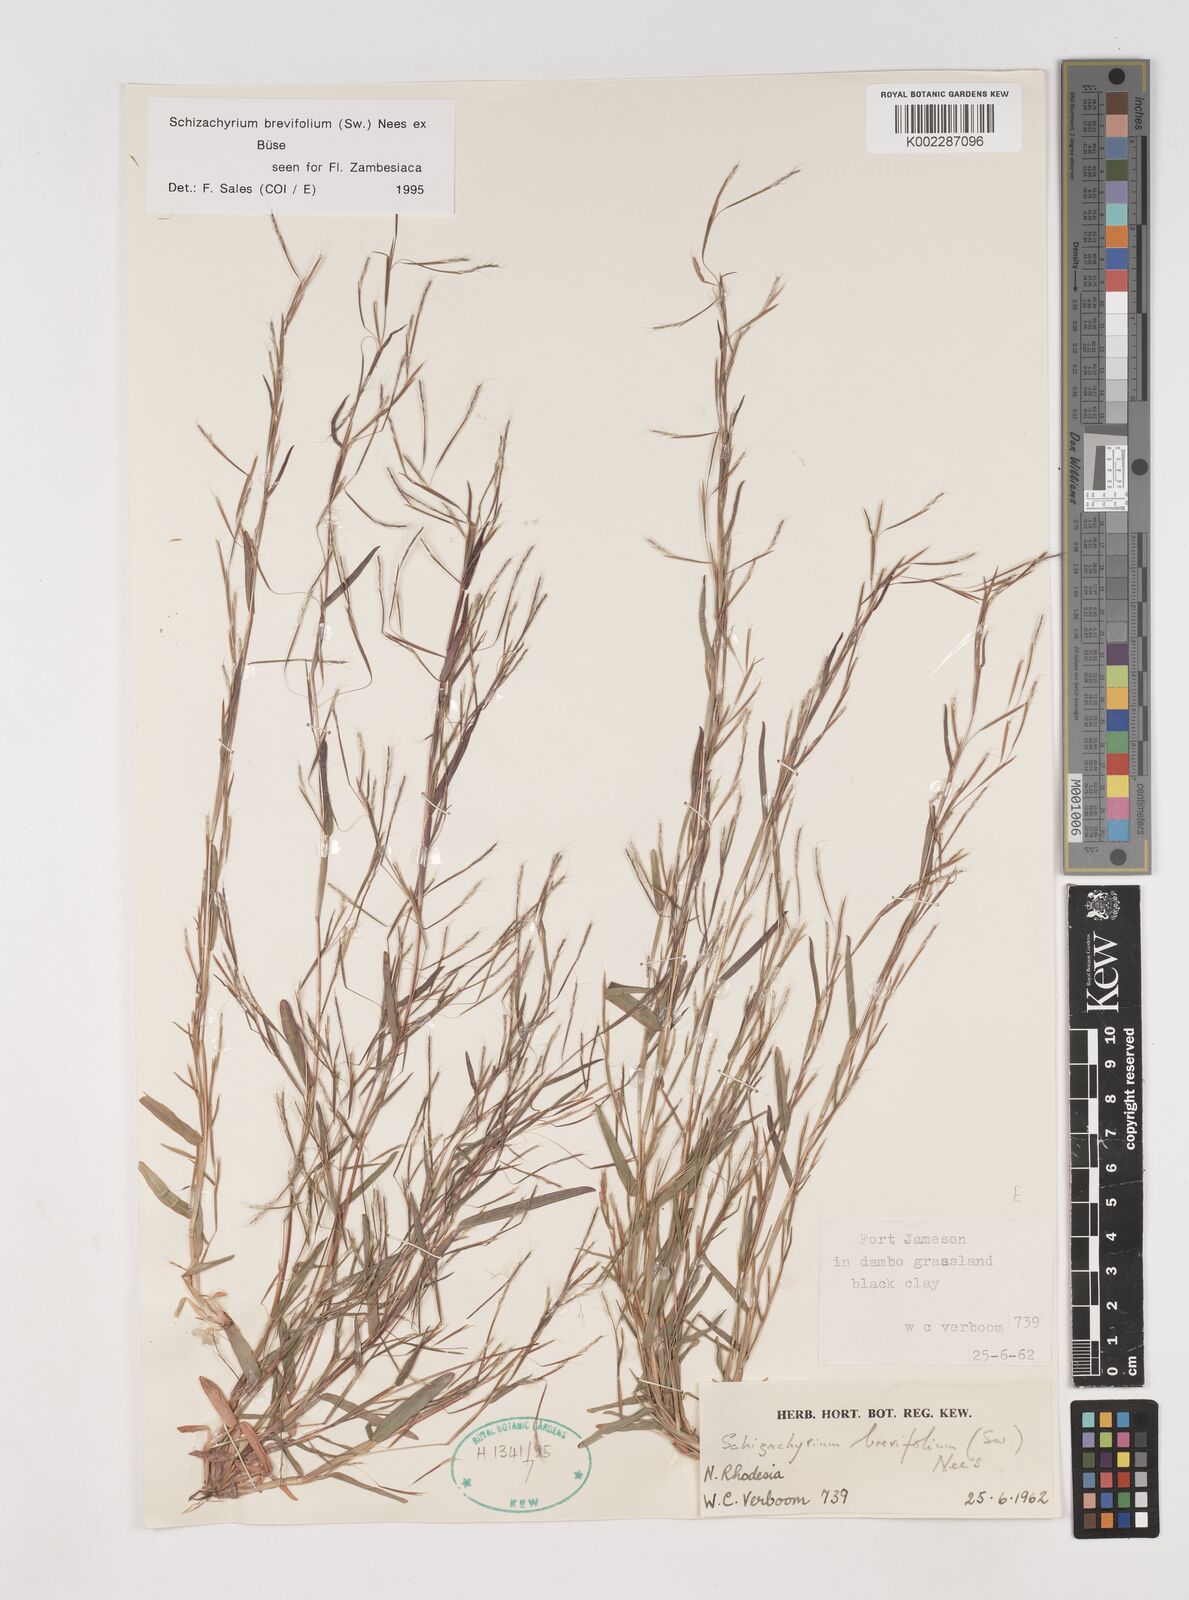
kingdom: Plantae
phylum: Tracheophyta
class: Liliopsida
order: Poales
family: Poaceae
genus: Schizachyrium
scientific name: Schizachyrium brevifolium
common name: Serillo dulce
